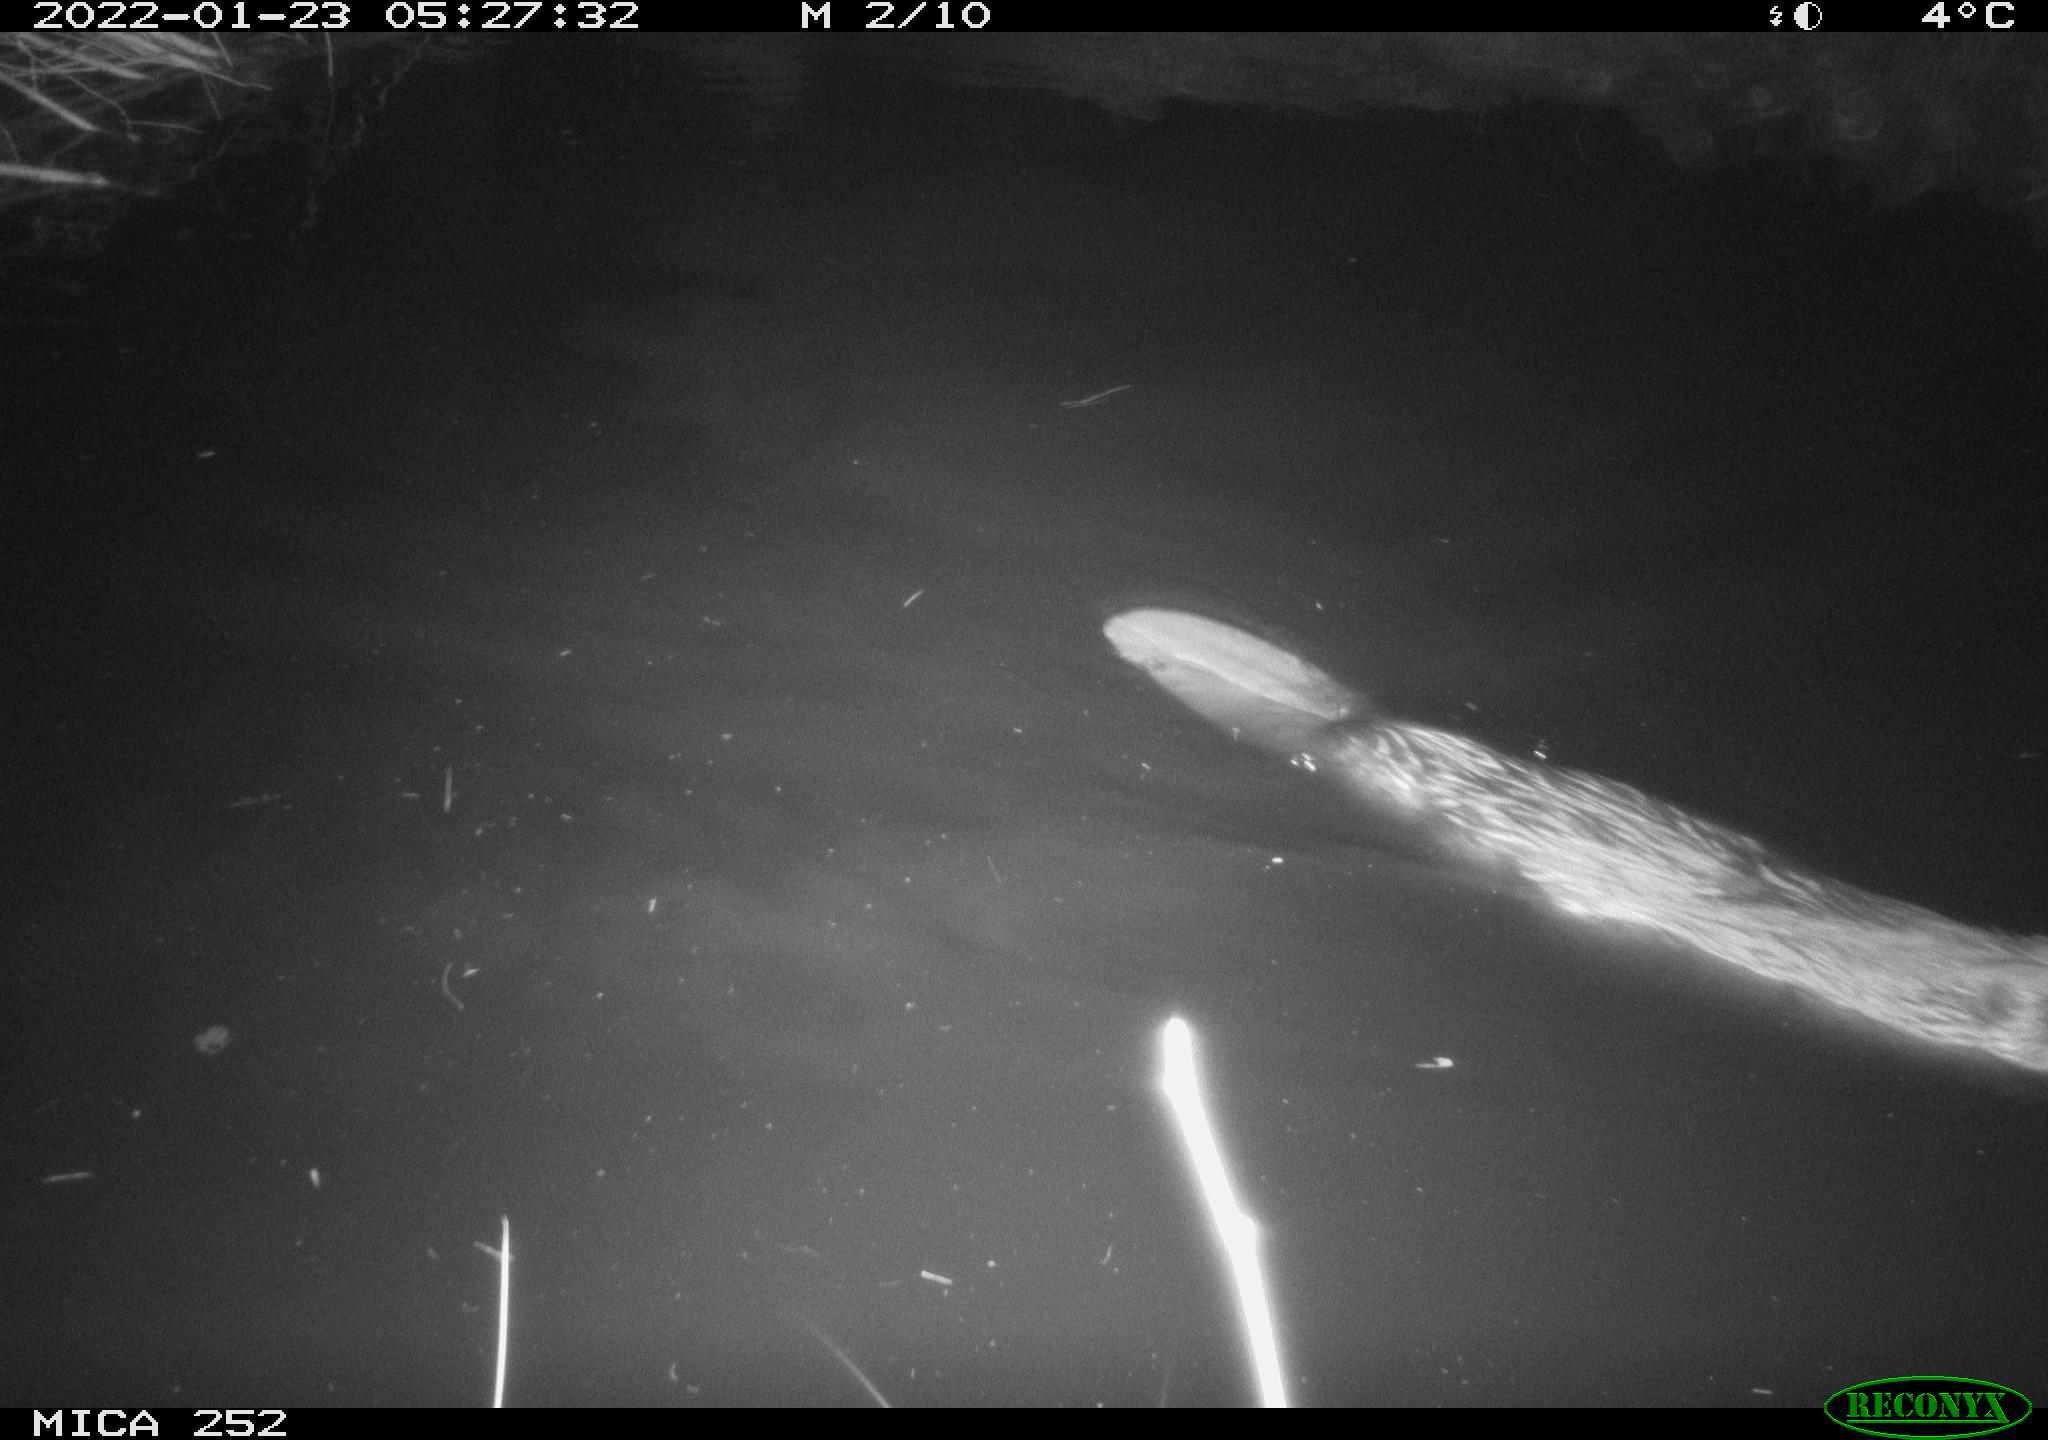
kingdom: Animalia
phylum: Chordata
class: Mammalia
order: Rodentia
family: Castoridae
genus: Castor
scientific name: Castor fiber
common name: Eurasian beaver
